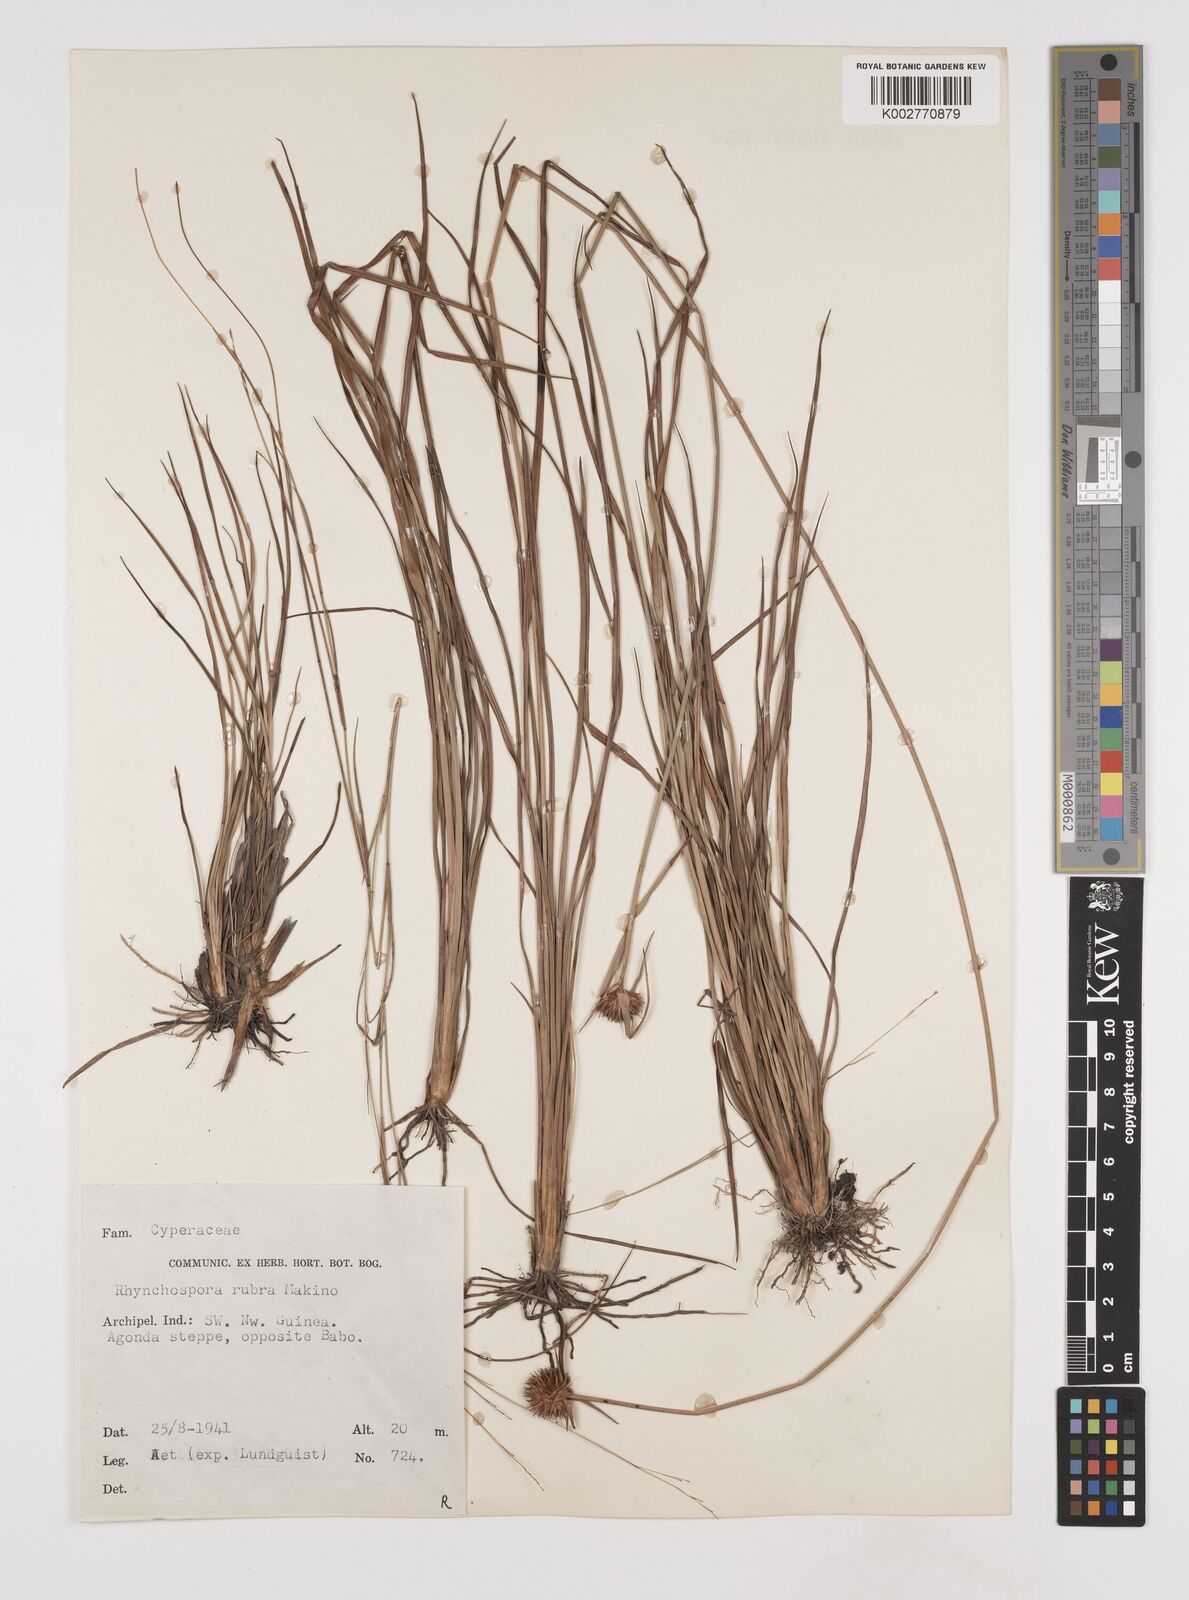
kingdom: Plantae
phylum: Tracheophyta
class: Liliopsida
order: Poales
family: Cyperaceae
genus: Rhynchospora
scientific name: Rhynchospora rubra
